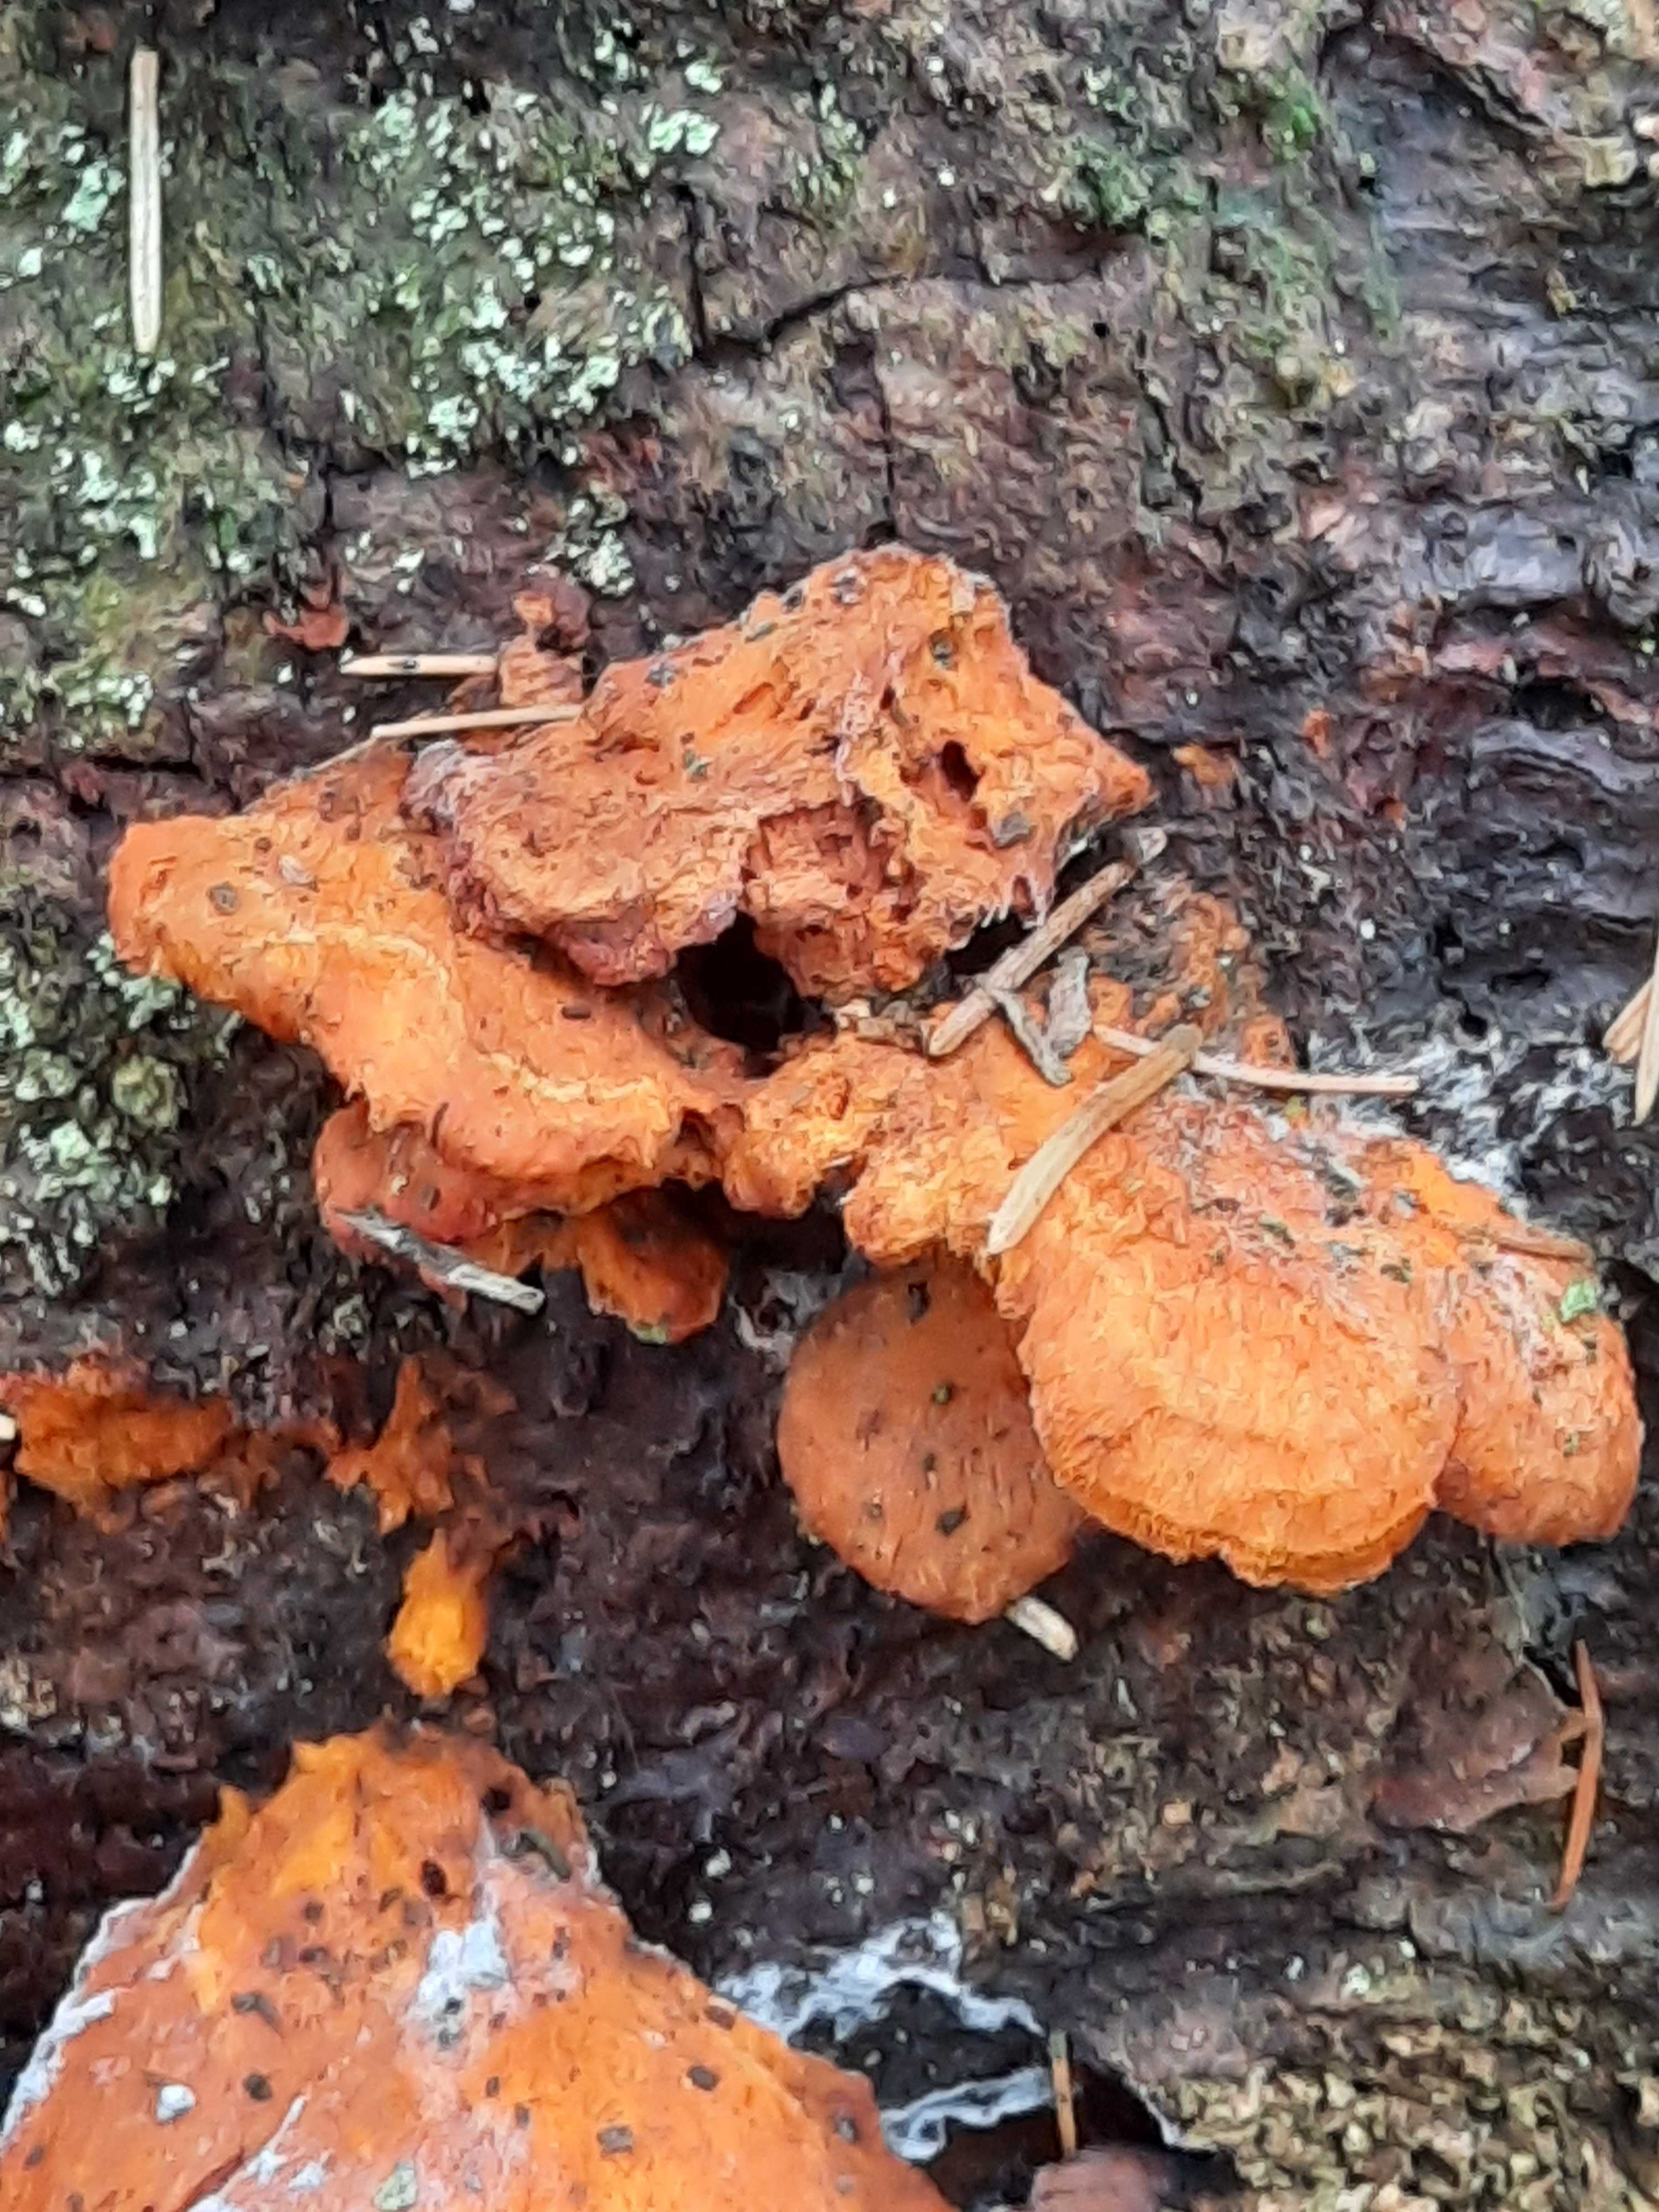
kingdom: Fungi
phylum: Basidiomycota
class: Agaricomycetes
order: Polyporales
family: Pycnoporellaceae
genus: Pycnoporellus
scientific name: Pycnoporellus fulgens
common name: flammeporesvamp
